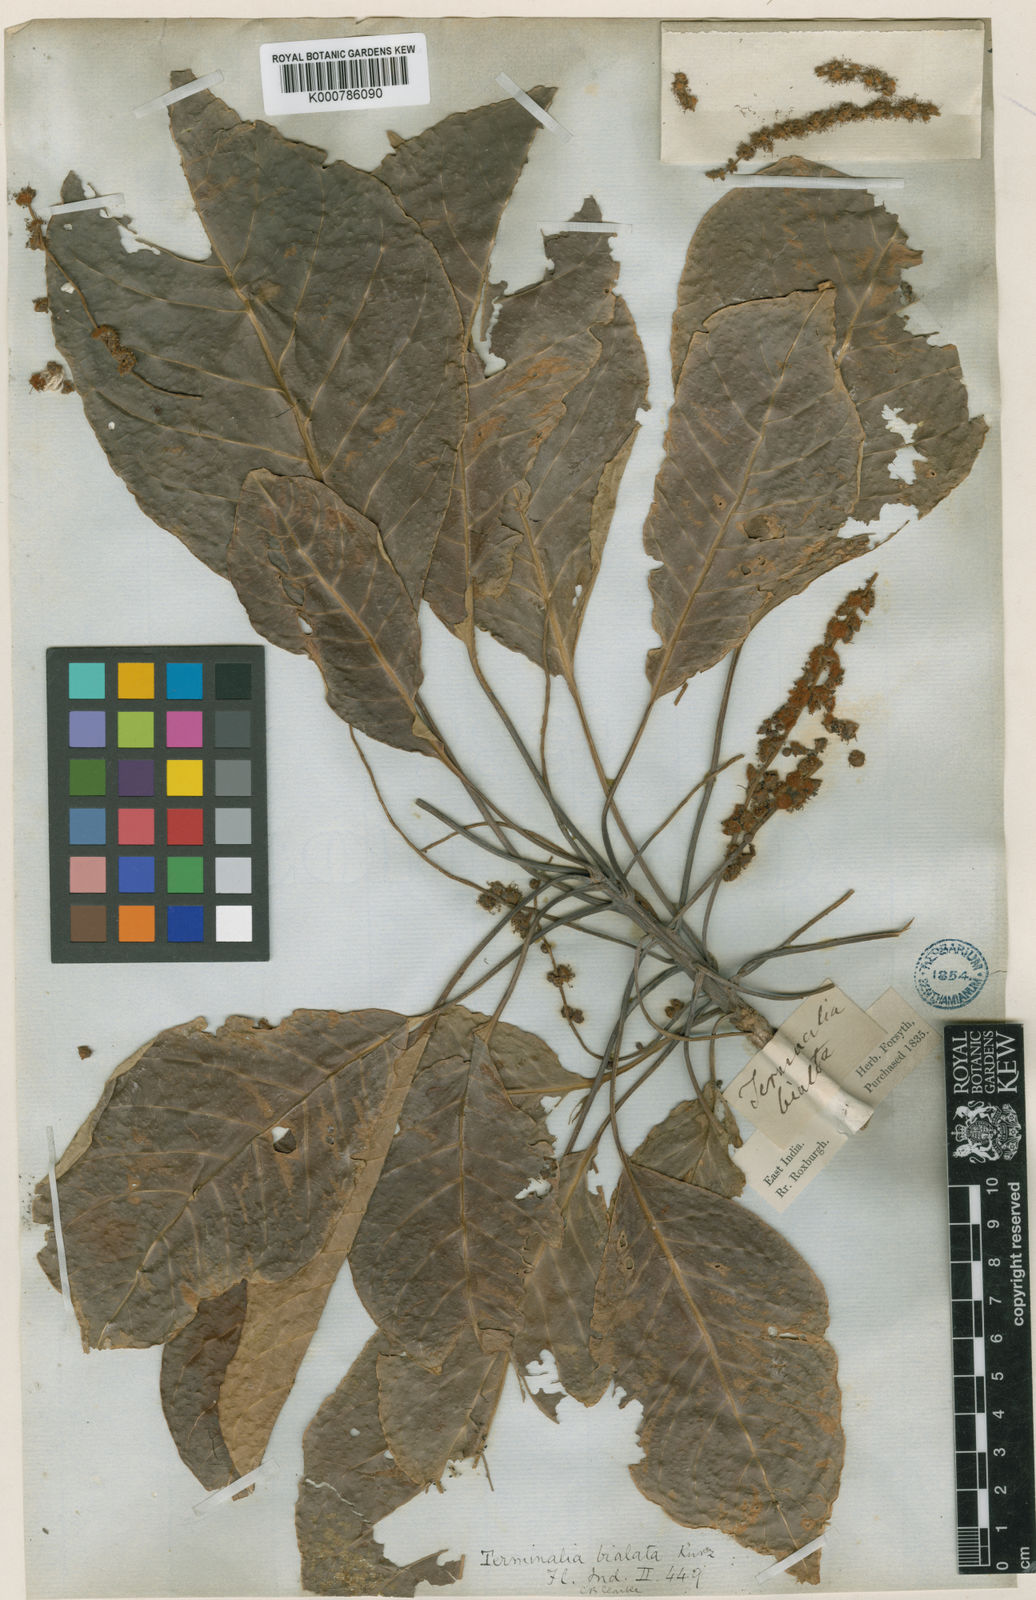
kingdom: Plantae
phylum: Tracheophyta
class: Magnoliopsida
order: Myrtales
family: Combretaceae
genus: Terminalia
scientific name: Terminalia
